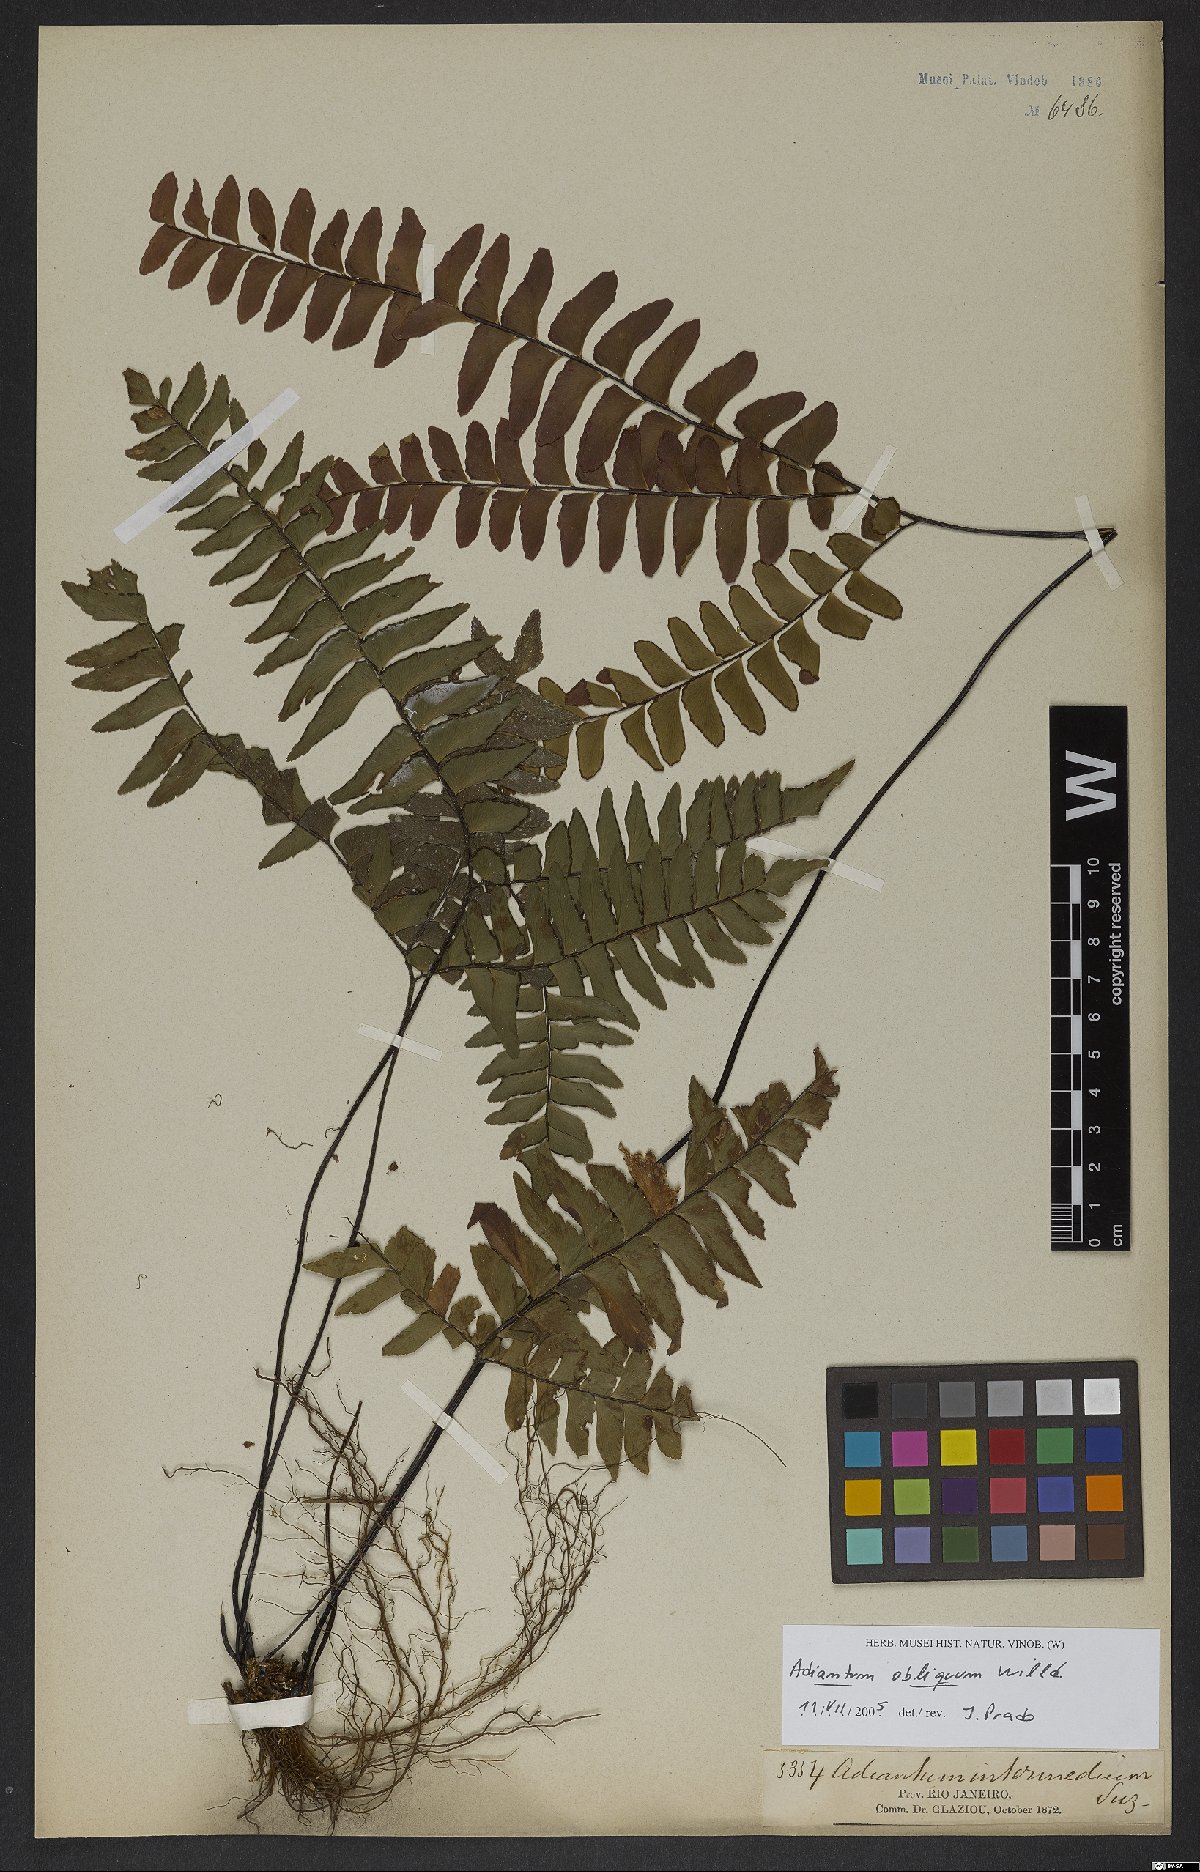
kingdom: Plantae
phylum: Tracheophyta
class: Polypodiopsida
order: Polypodiales
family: Pteridaceae
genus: Adiantum
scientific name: Adiantum obliquum
